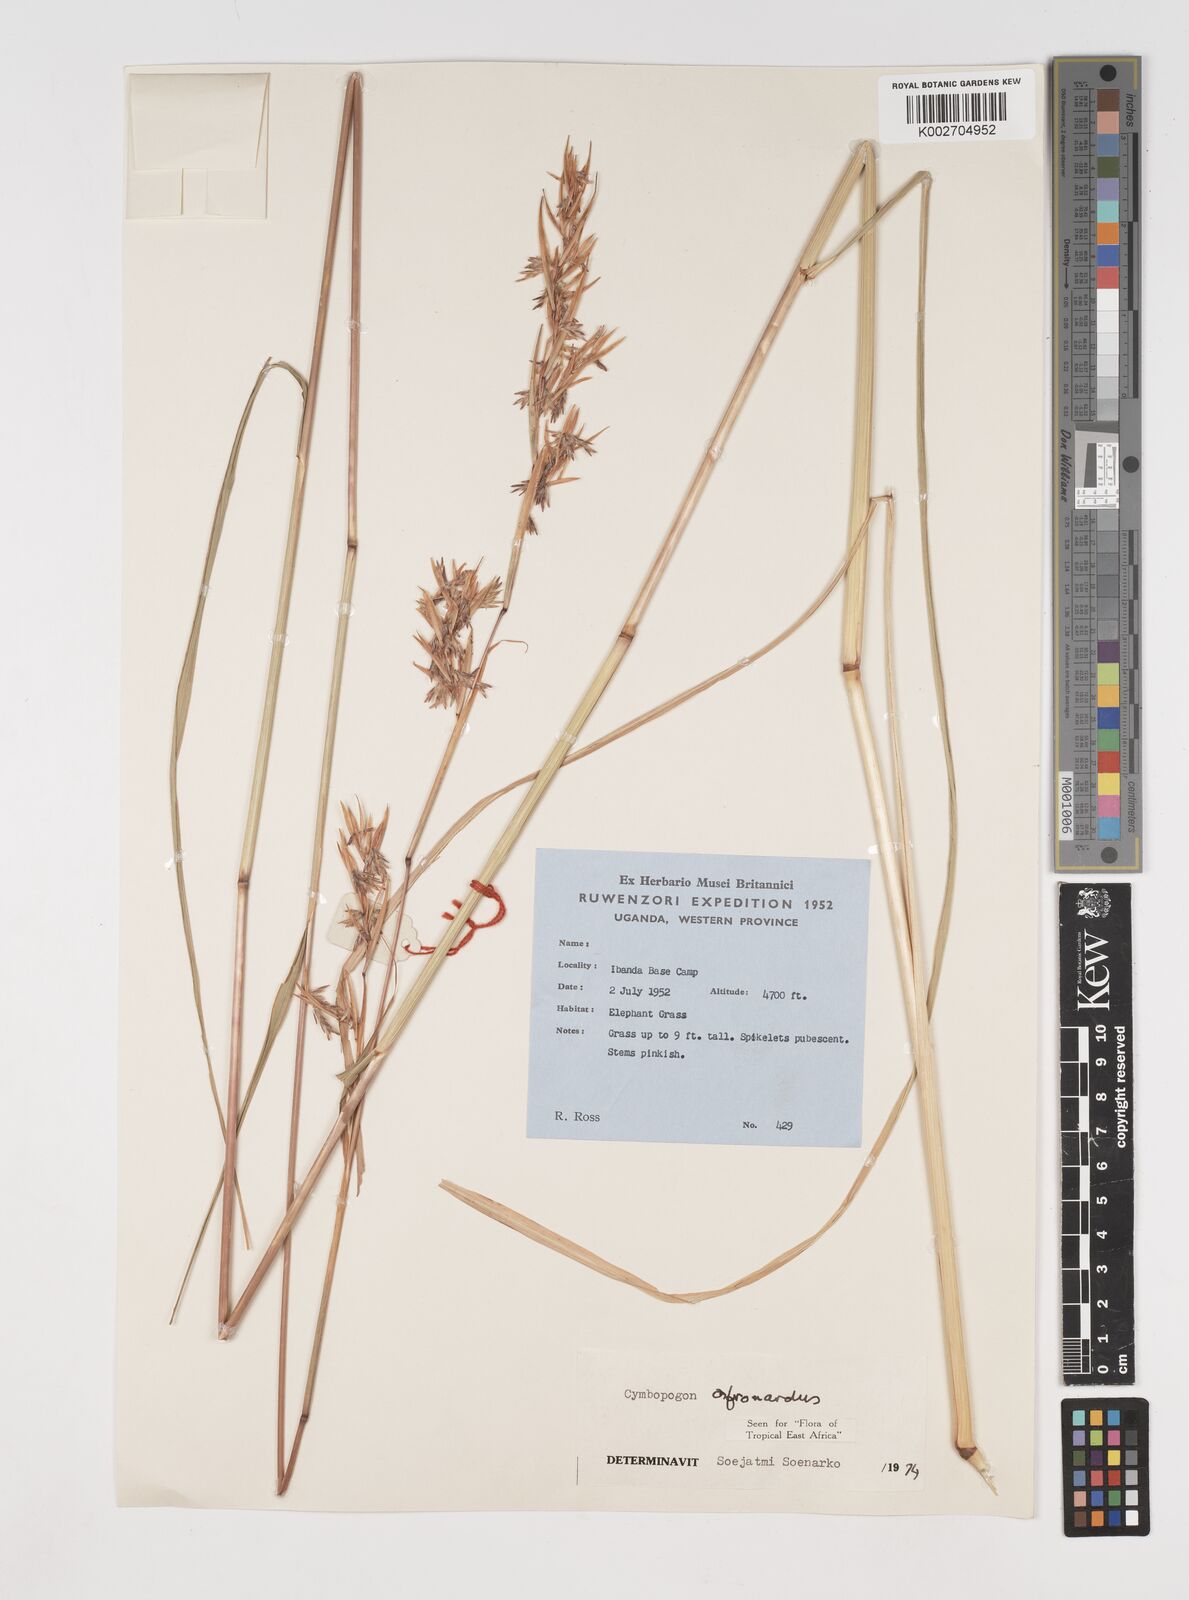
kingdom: Plantae
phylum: Tracheophyta
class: Liliopsida
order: Poales
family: Poaceae
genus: Cymbopogon
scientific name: Cymbopogon nardus
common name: Giant turpentine grass
